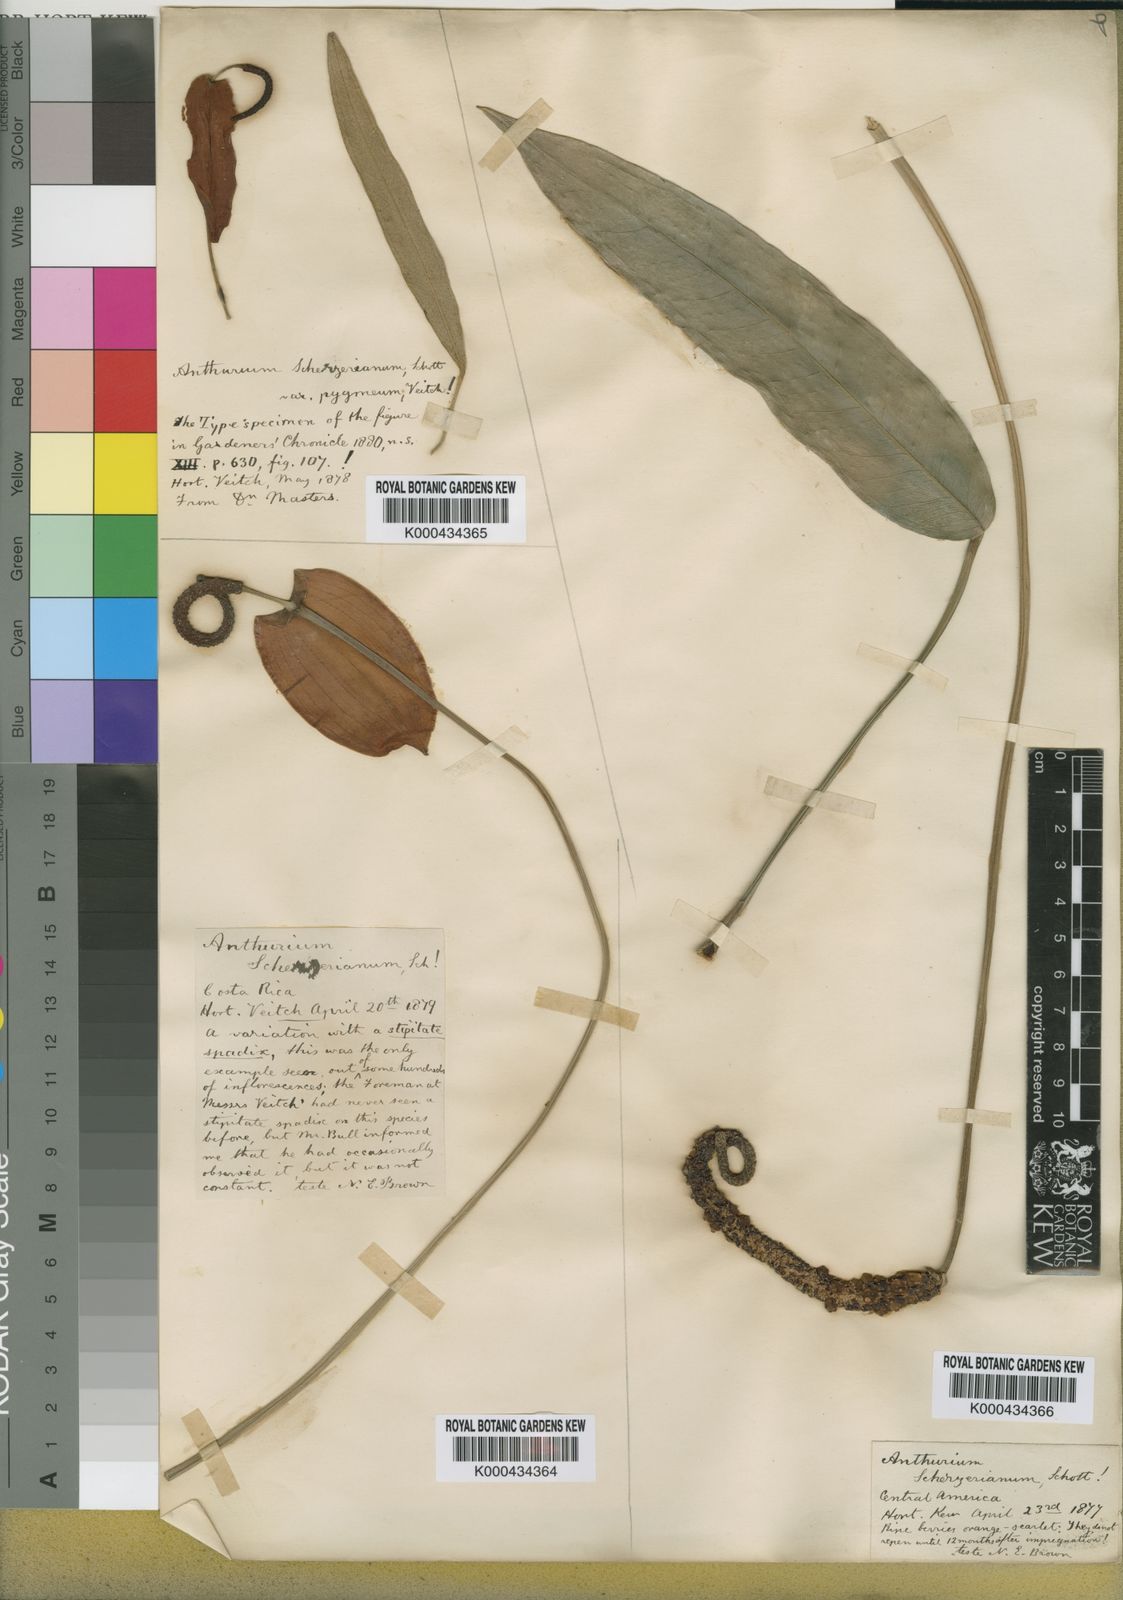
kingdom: Plantae
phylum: Tracheophyta
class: Liliopsida
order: Alismatales
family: Araceae
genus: Anthurium
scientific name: Anthurium scherzerianum
